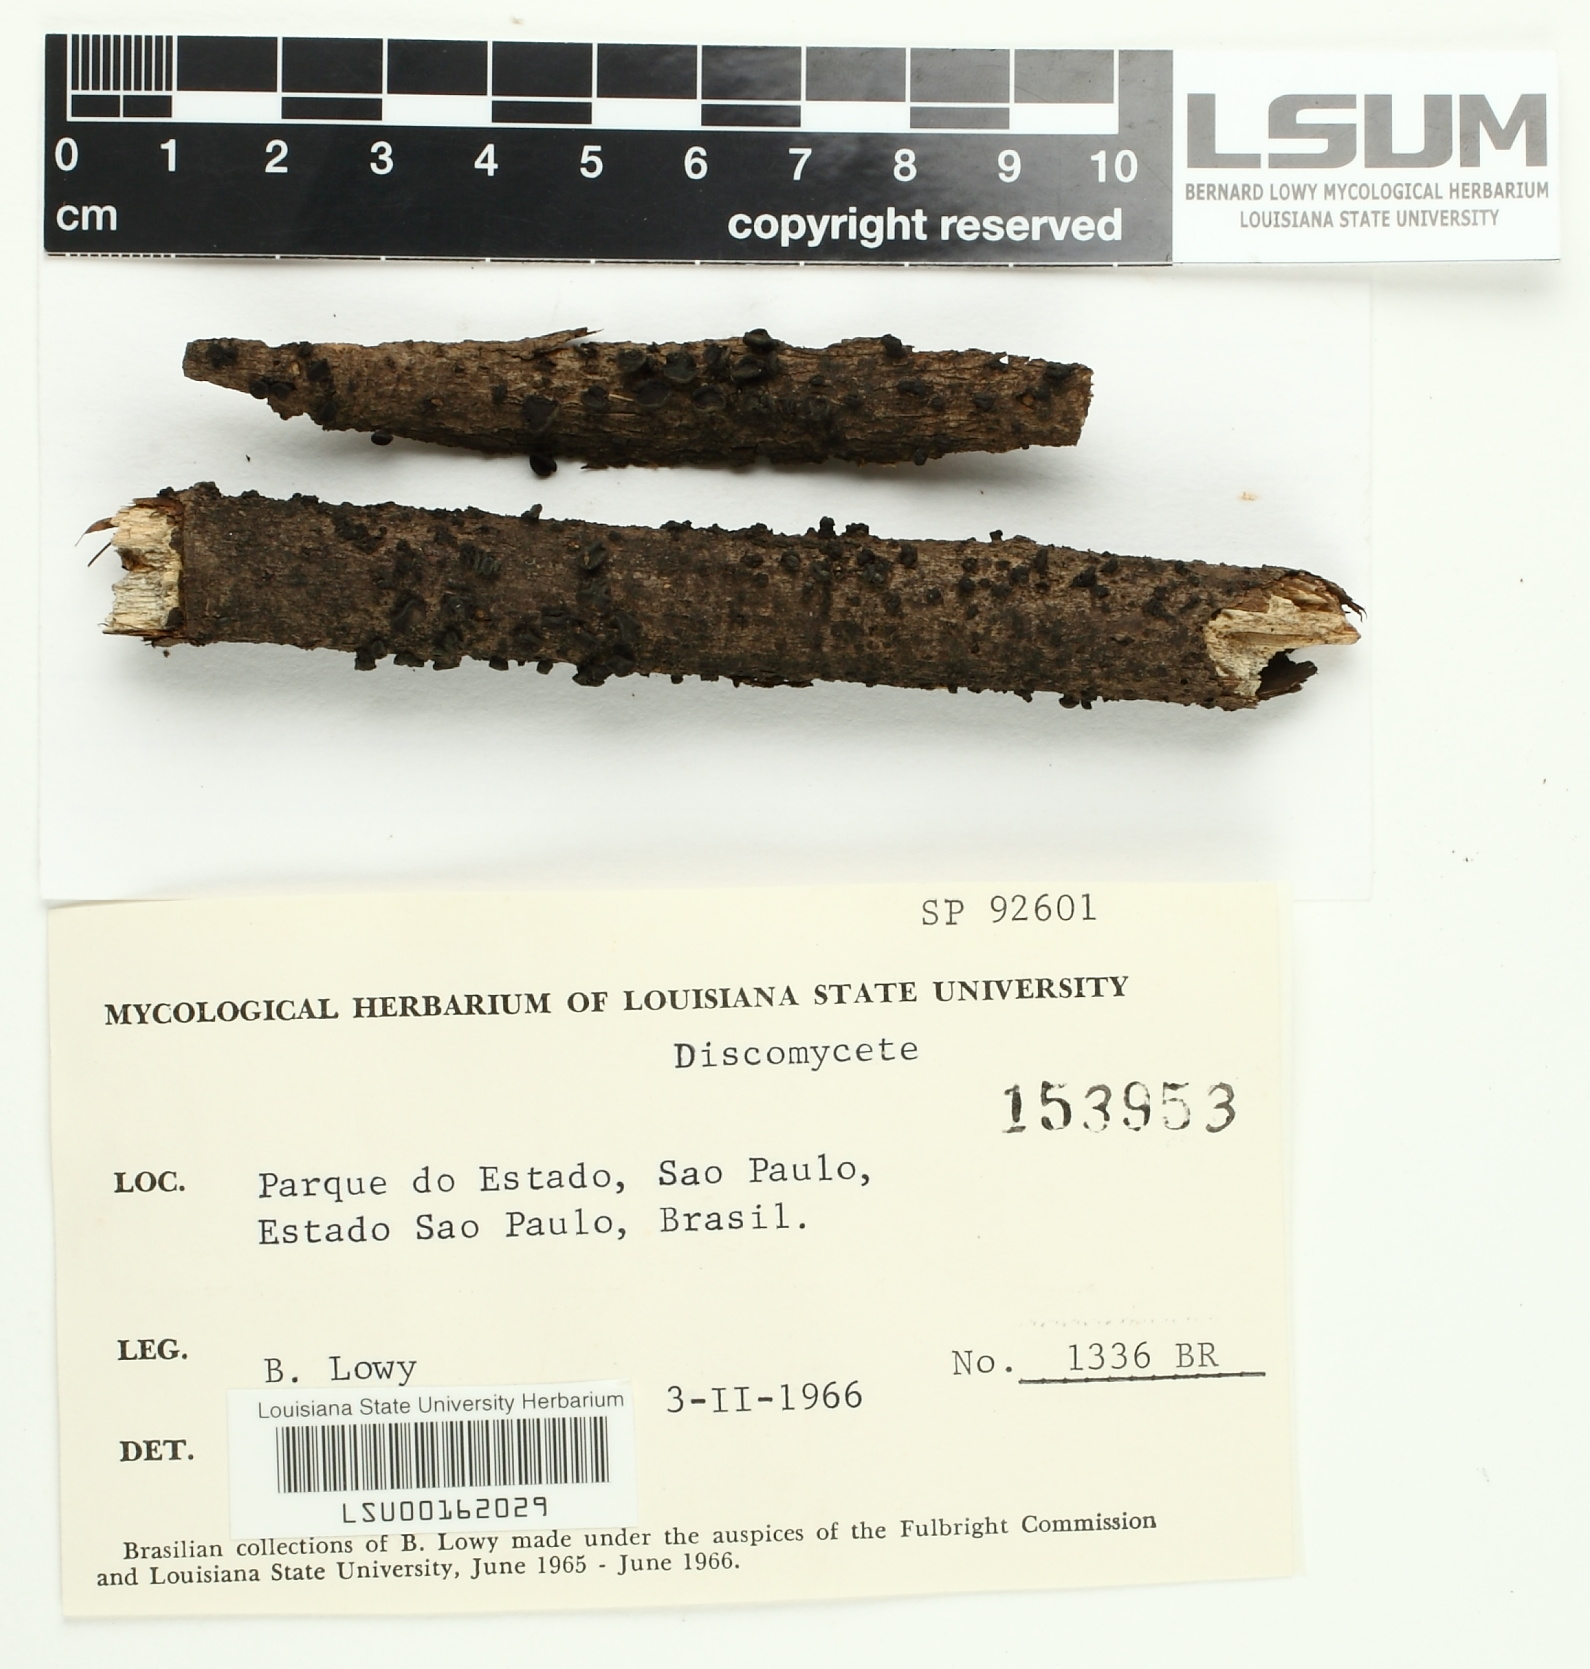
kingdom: Fungi
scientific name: Fungi
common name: Fungi
